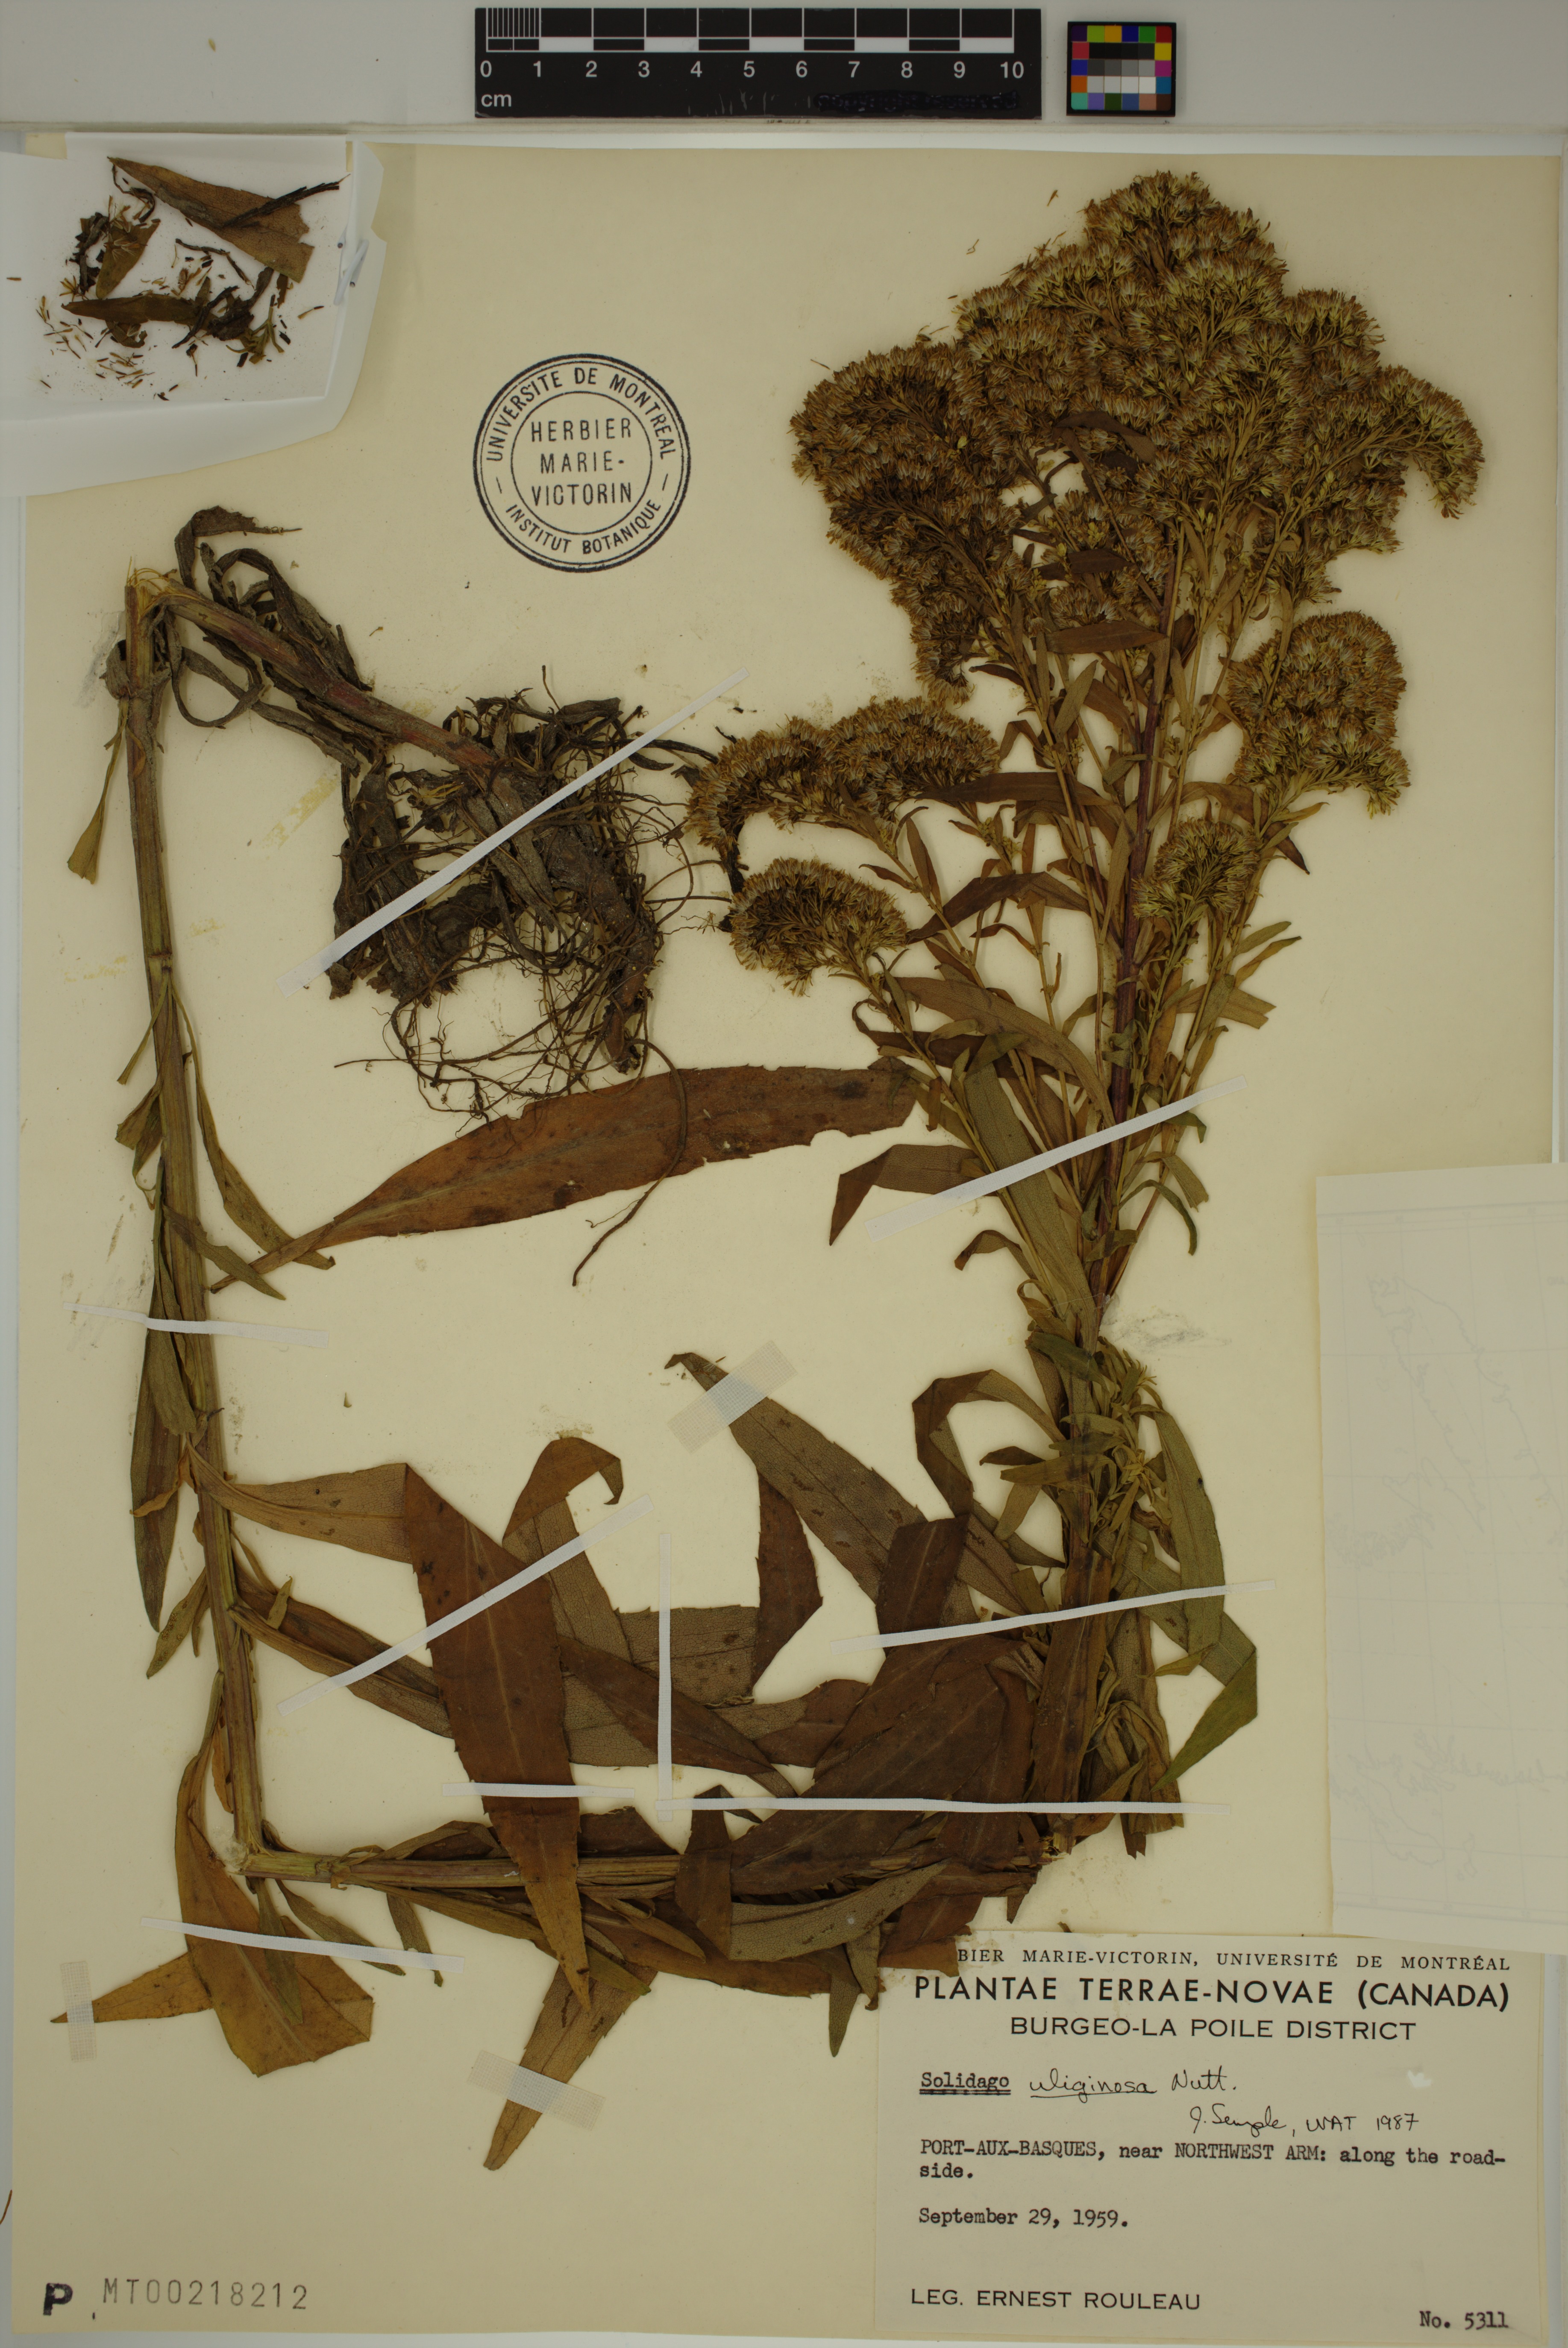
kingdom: Plantae
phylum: Tracheophyta
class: Magnoliopsida
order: Asterales
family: Asteraceae
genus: Solidago
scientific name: Solidago uliginosa
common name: Bog goldenrod
